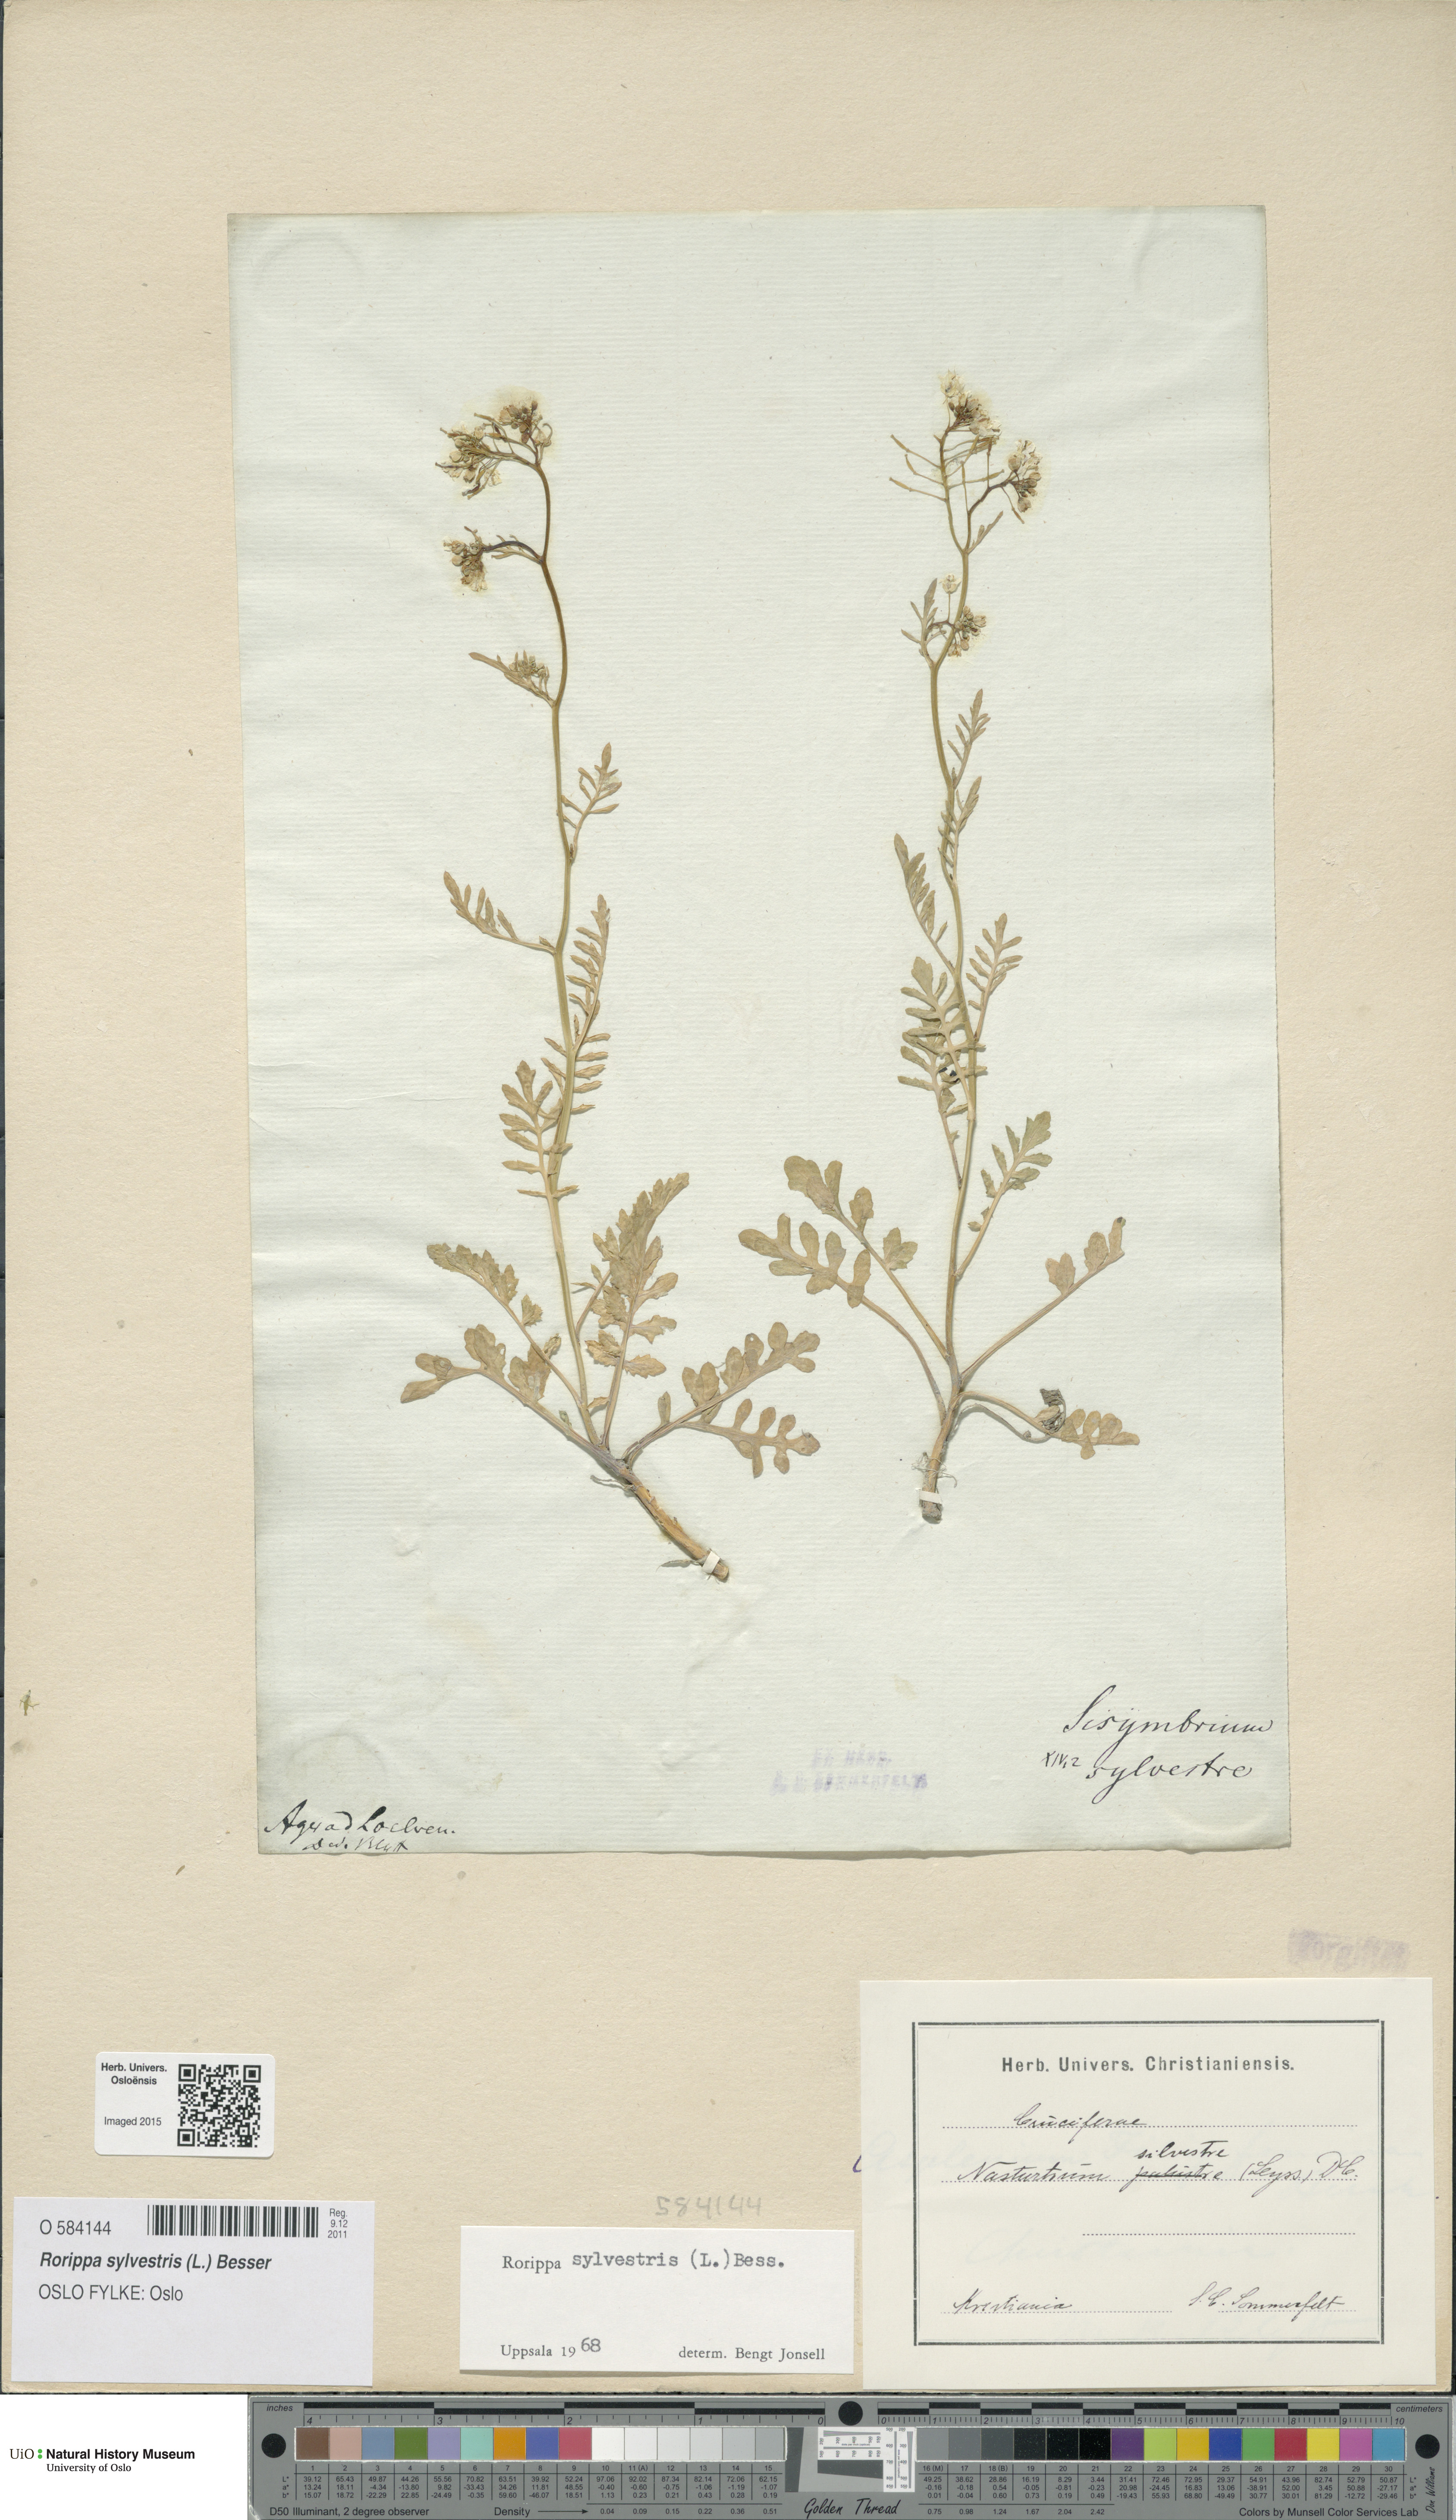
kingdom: Plantae
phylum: Tracheophyta
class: Magnoliopsida
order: Brassicales
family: Brassicaceae
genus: Rorippa
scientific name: Rorippa sylvestris
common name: Creeping yellowcress
